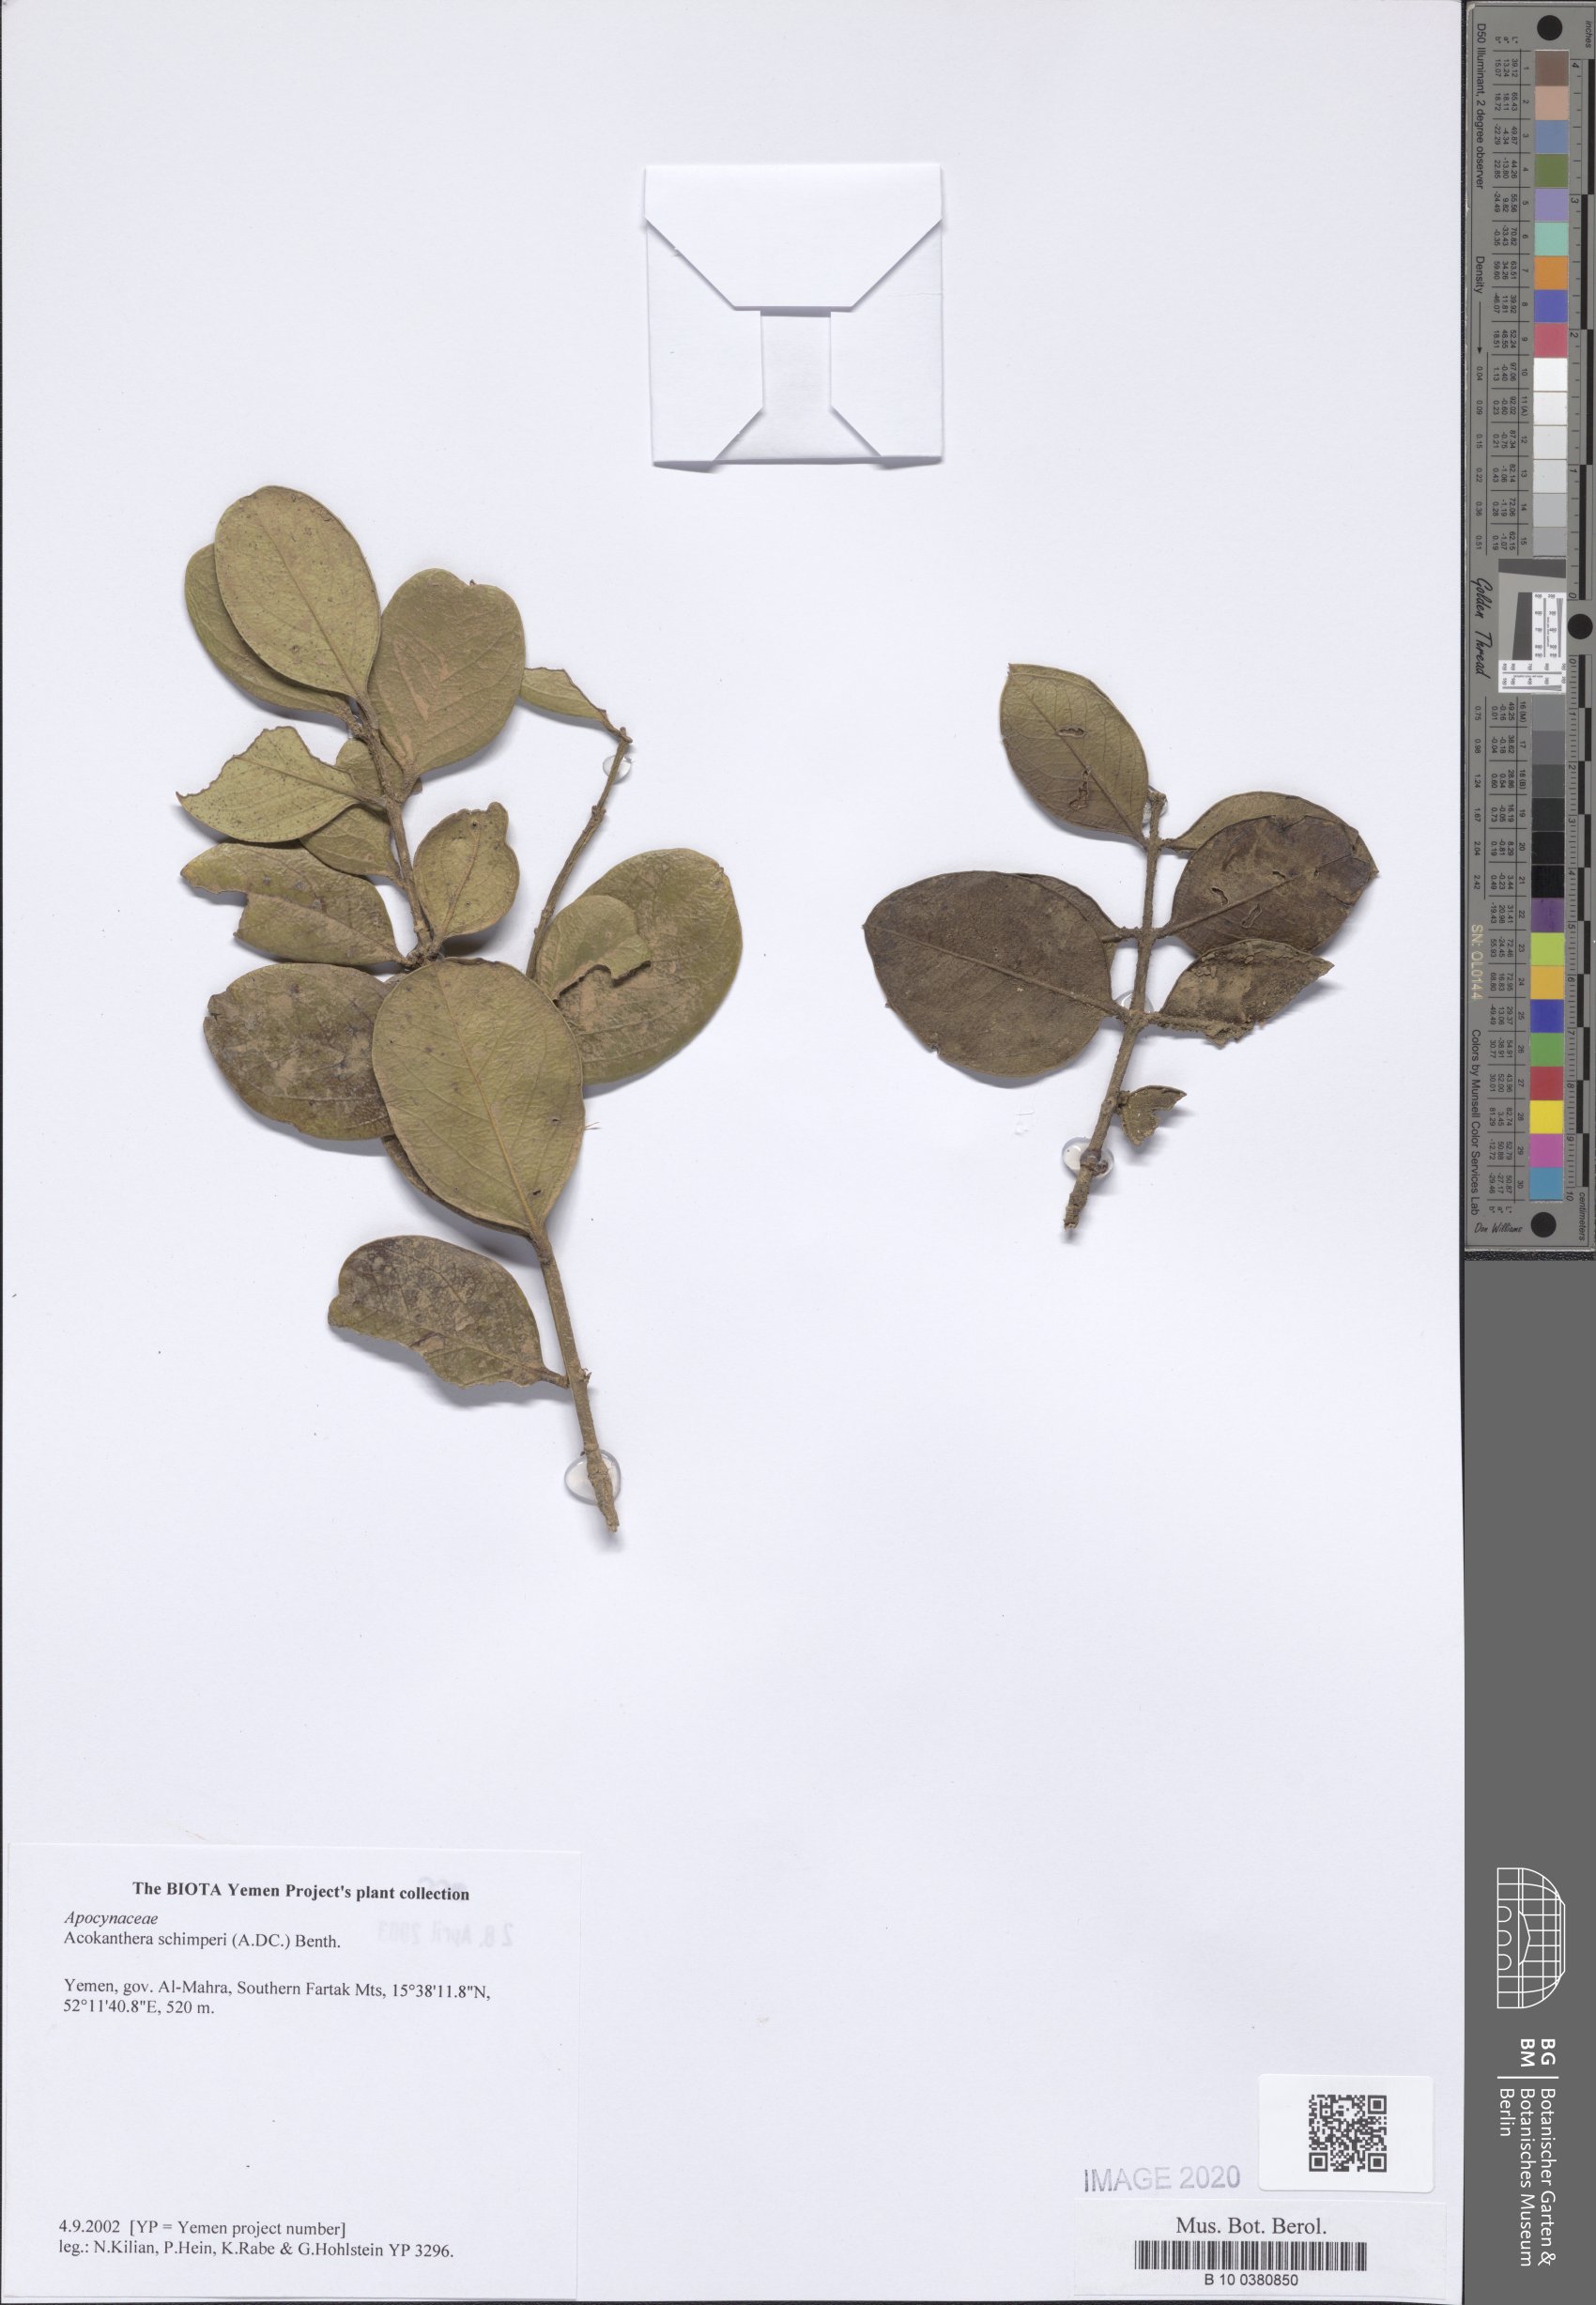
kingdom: Plantae
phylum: Tracheophyta
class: Magnoliopsida
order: Gentianales
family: Apocynaceae
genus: Acokanthera
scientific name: Acokanthera schimperi
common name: Arrow-poison-tree
